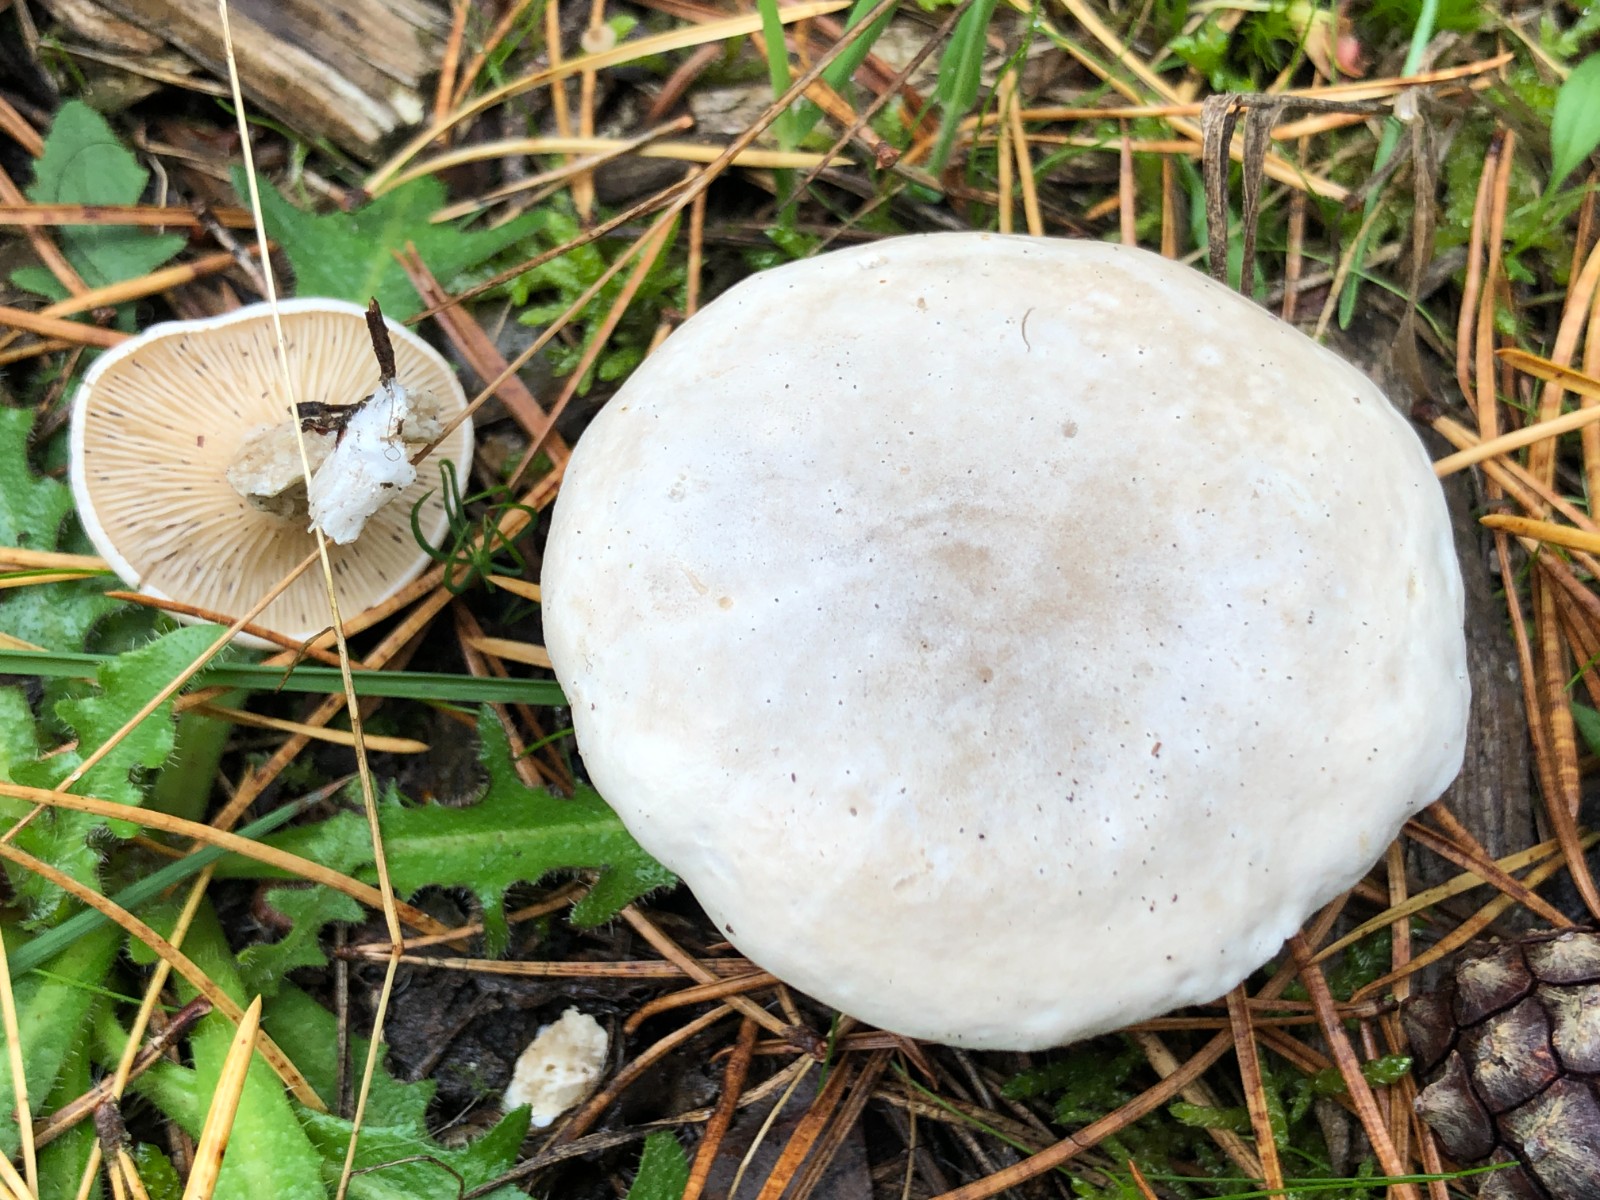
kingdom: Fungi
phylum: Basidiomycota
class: Agaricomycetes
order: Agaricales
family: Entolomataceae
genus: Clitopilus
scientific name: Clitopilus prunulus
